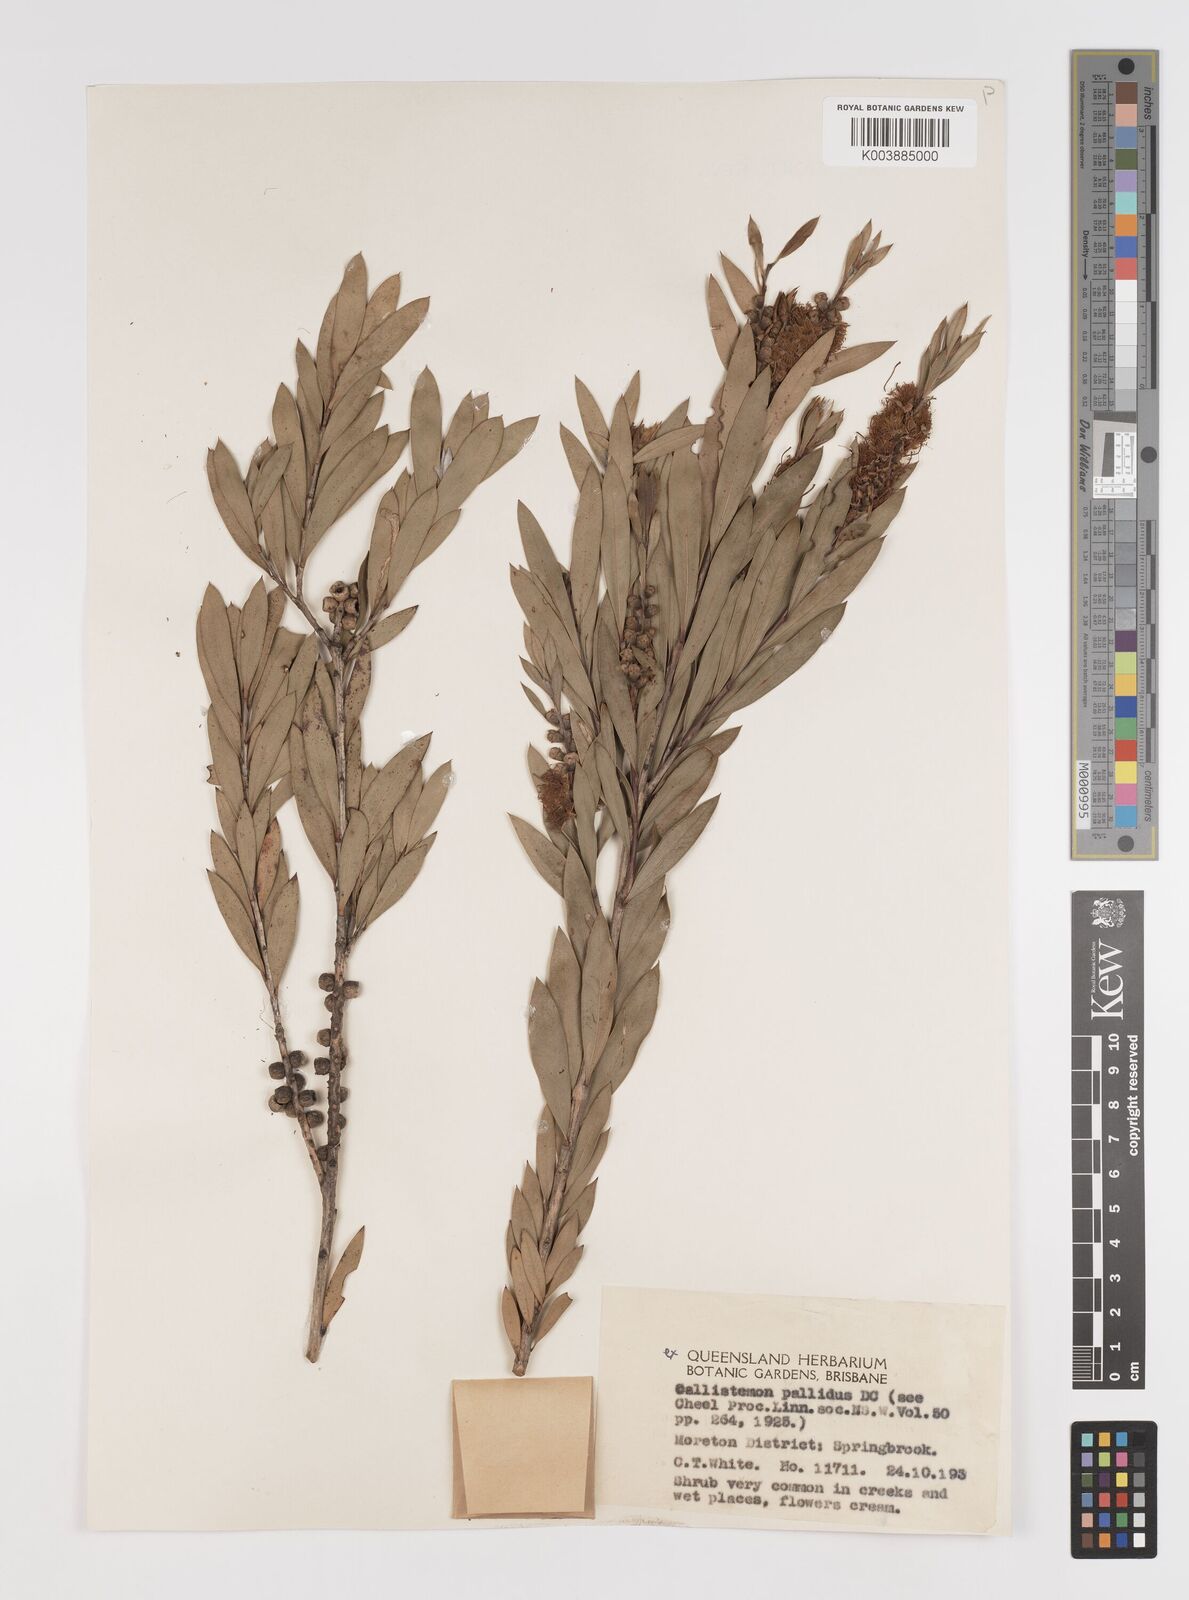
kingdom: Plantae
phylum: Tracheophyta
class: Magnoliopsida
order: Myrtales
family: Myrtaceae
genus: Melaleuca
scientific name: Melaleuca pallida
